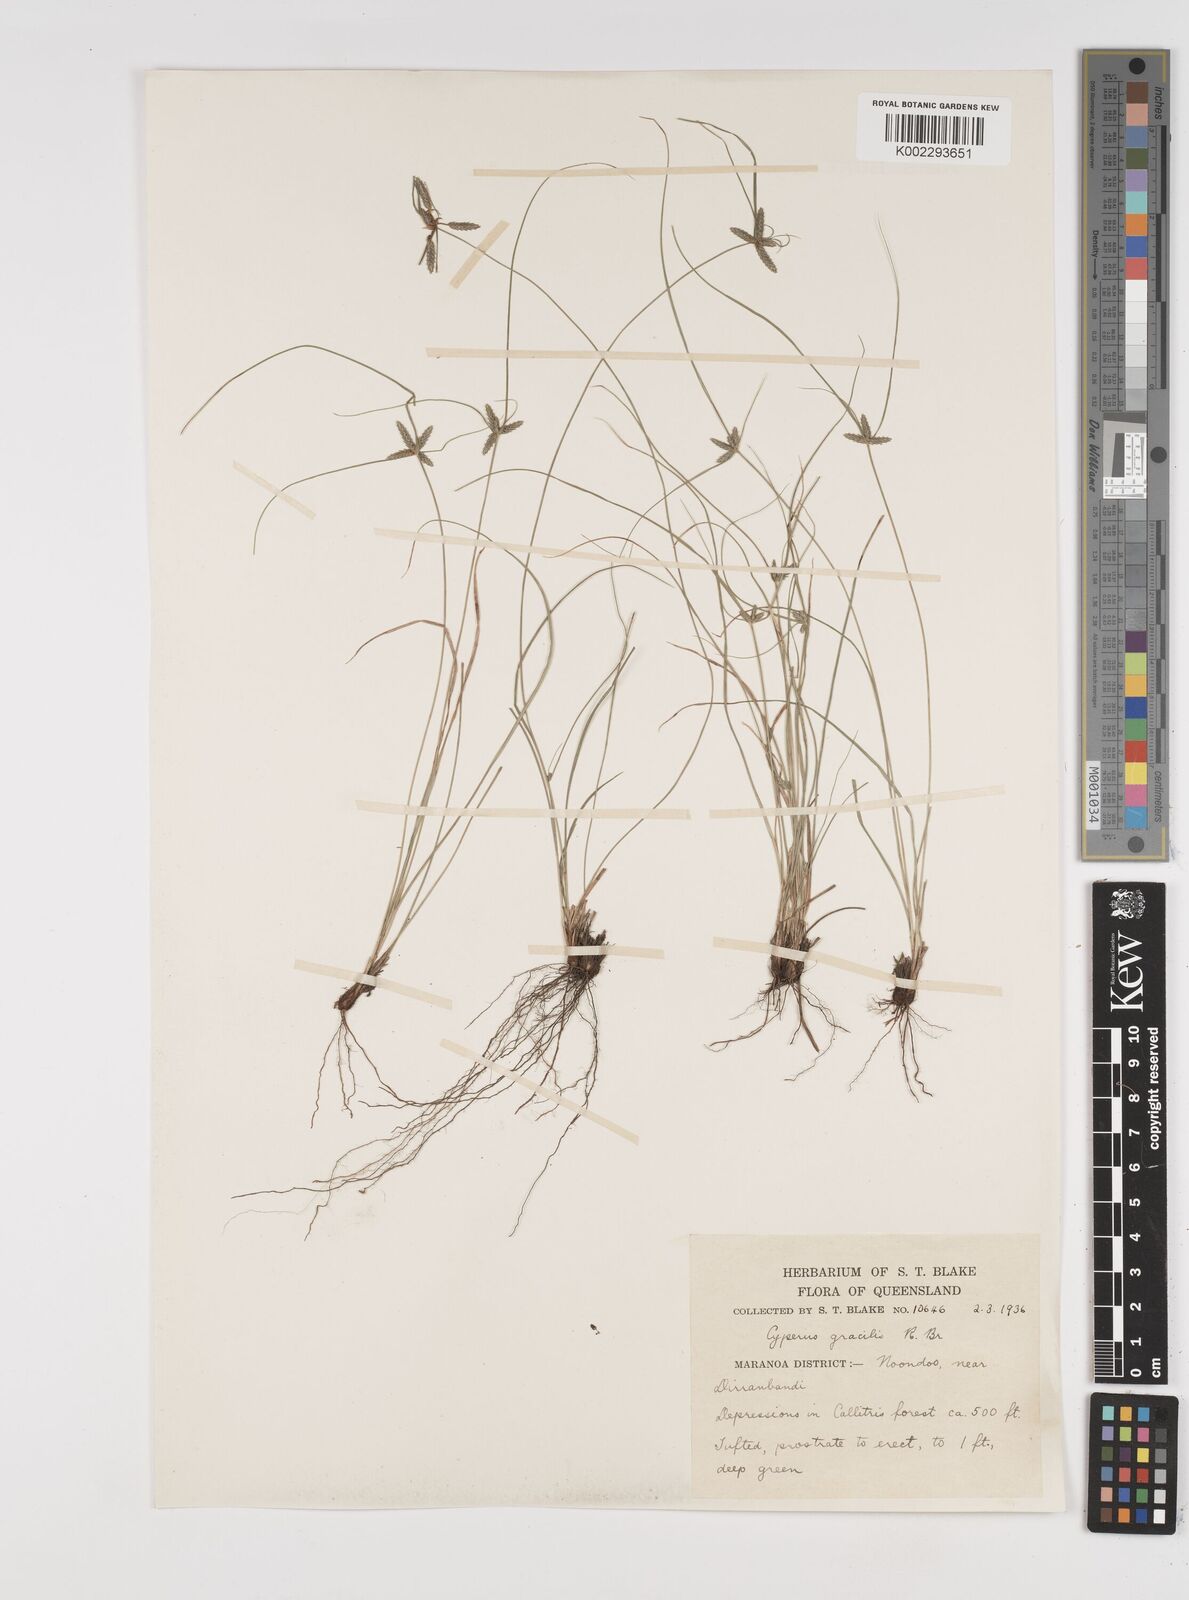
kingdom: Plantae
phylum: Tracheophyta
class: Liliopsida
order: Poales
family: Cyperaceae
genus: Cyperus
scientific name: Cyperus gracilis
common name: Slimjim flatsedge
